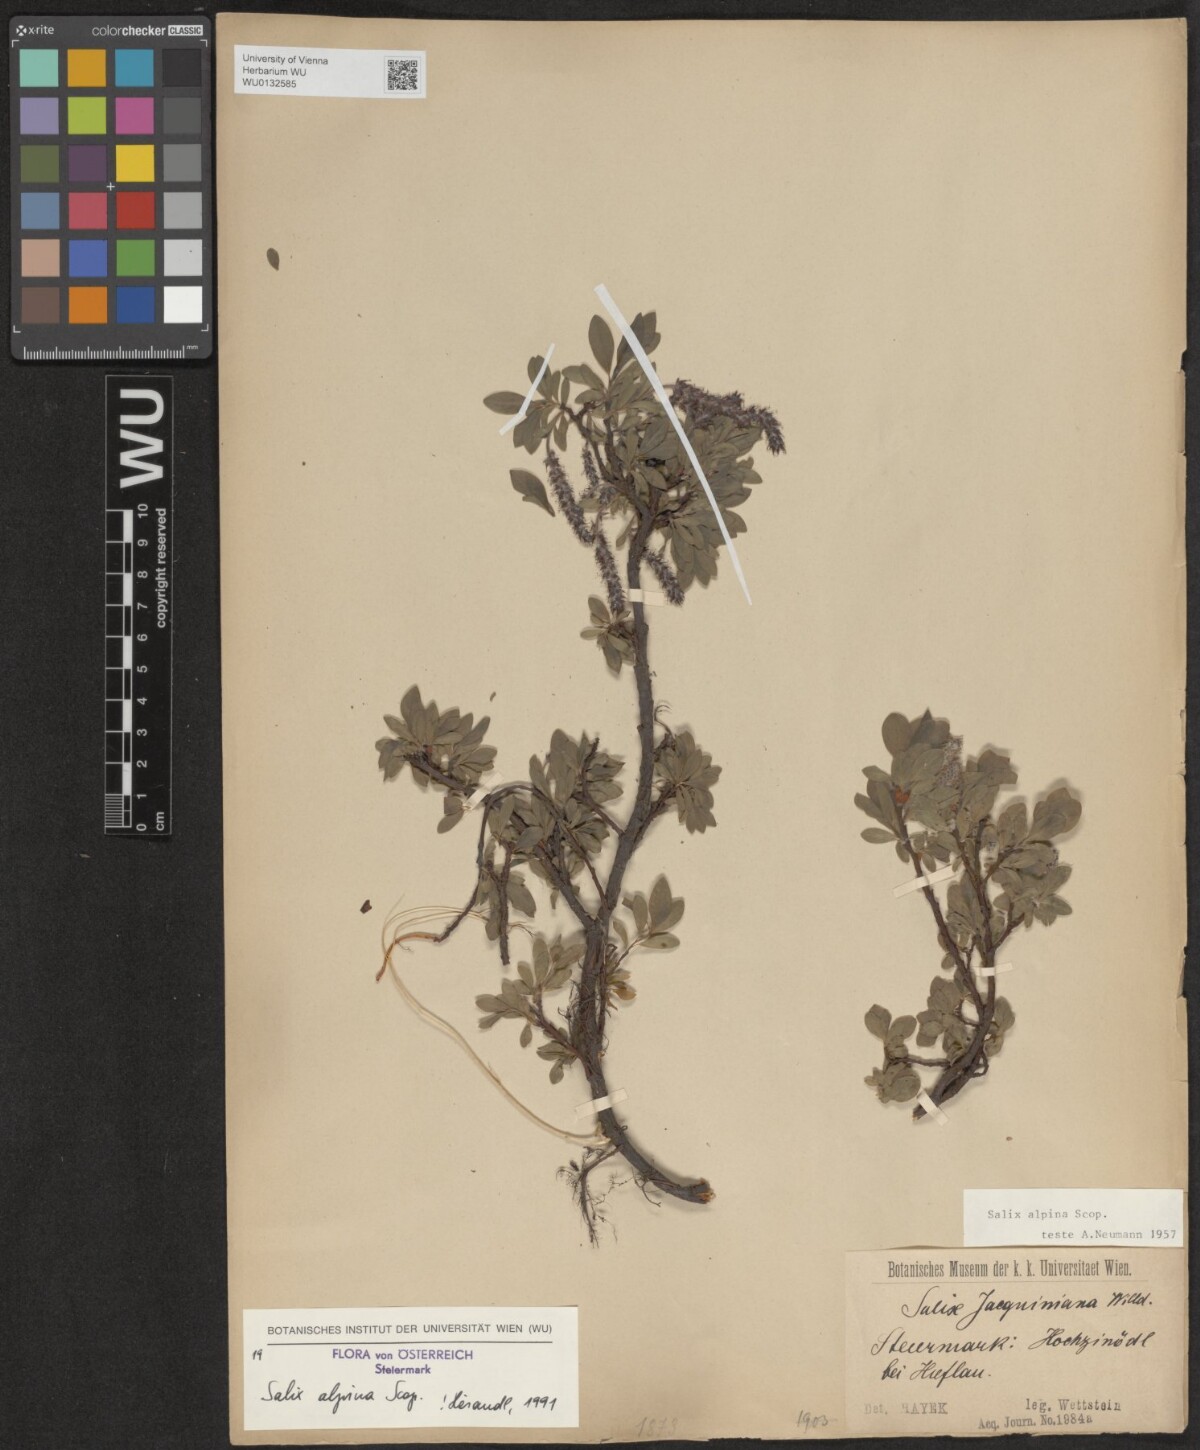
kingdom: Plantae
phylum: Tracheophyta
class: Magnoliopsida
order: Malpighiales
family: Salicaceae
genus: Salix
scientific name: Salix alpina
